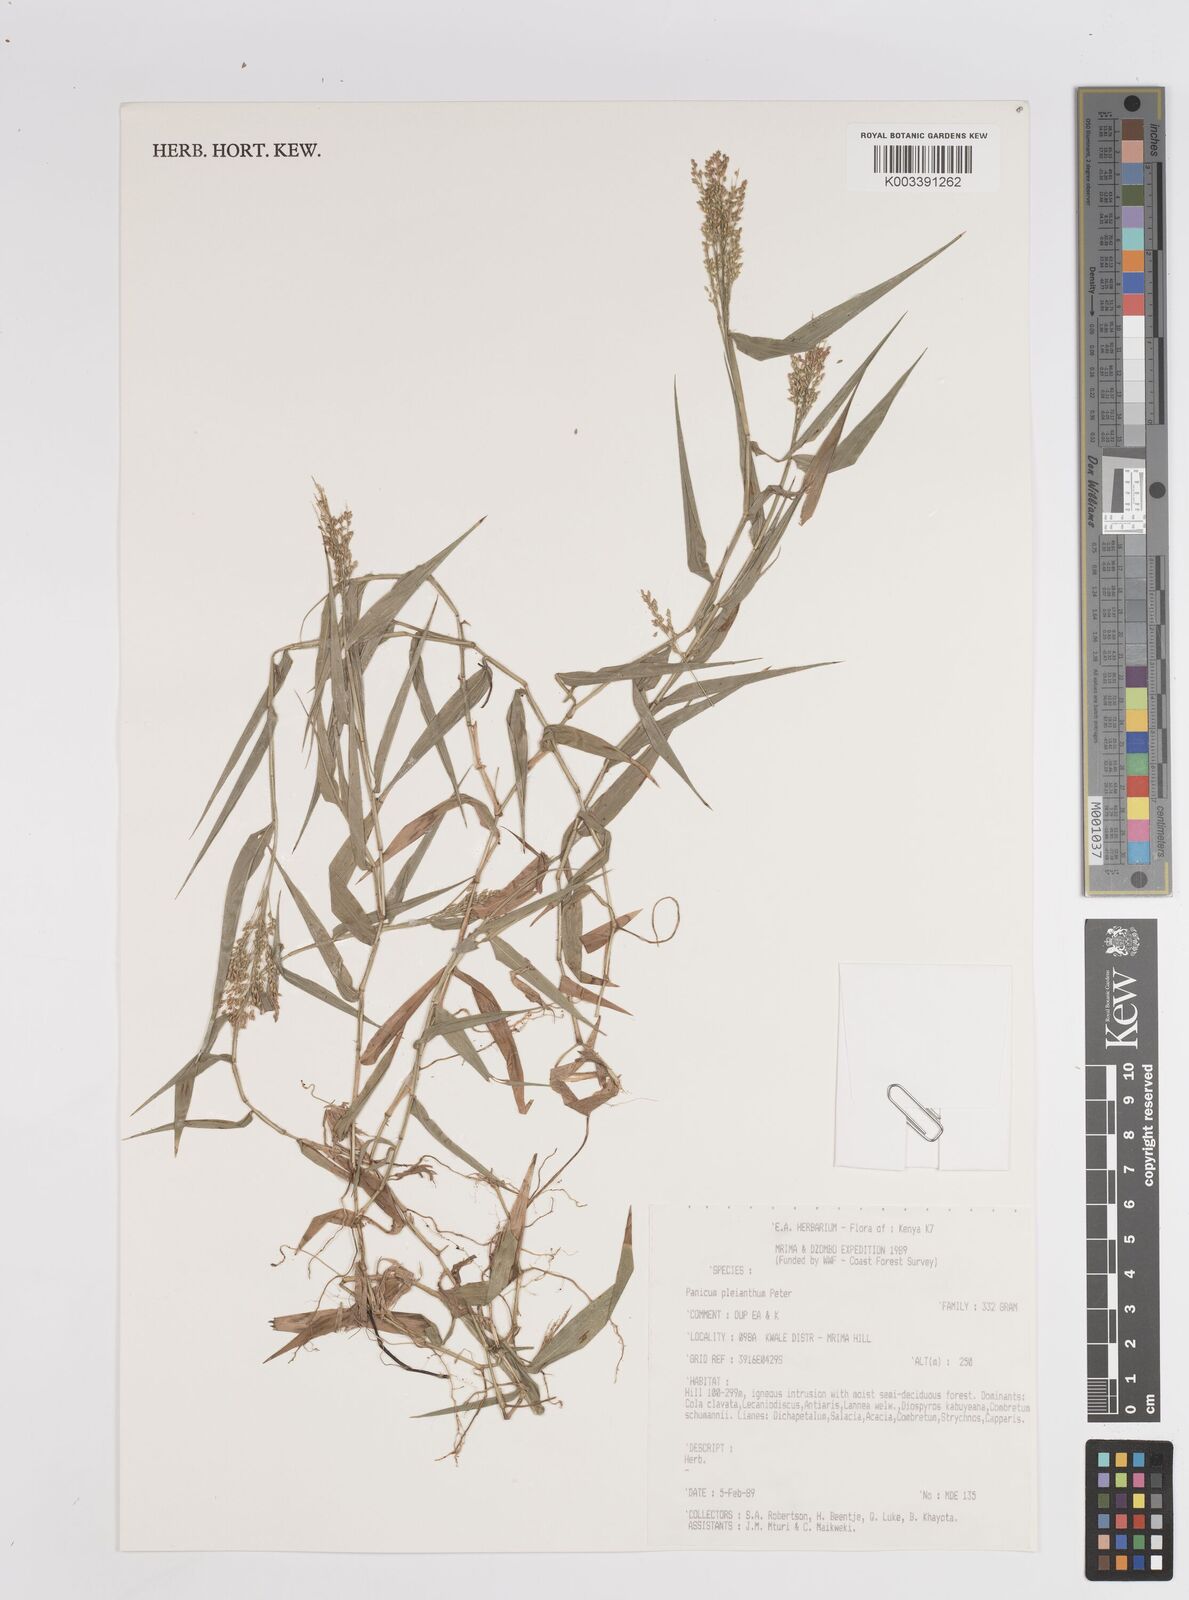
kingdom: Plantae
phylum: Tracheophyta
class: Liliopsida
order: Poales
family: Poaceae
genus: Panicum
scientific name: Panicum pleianthum
